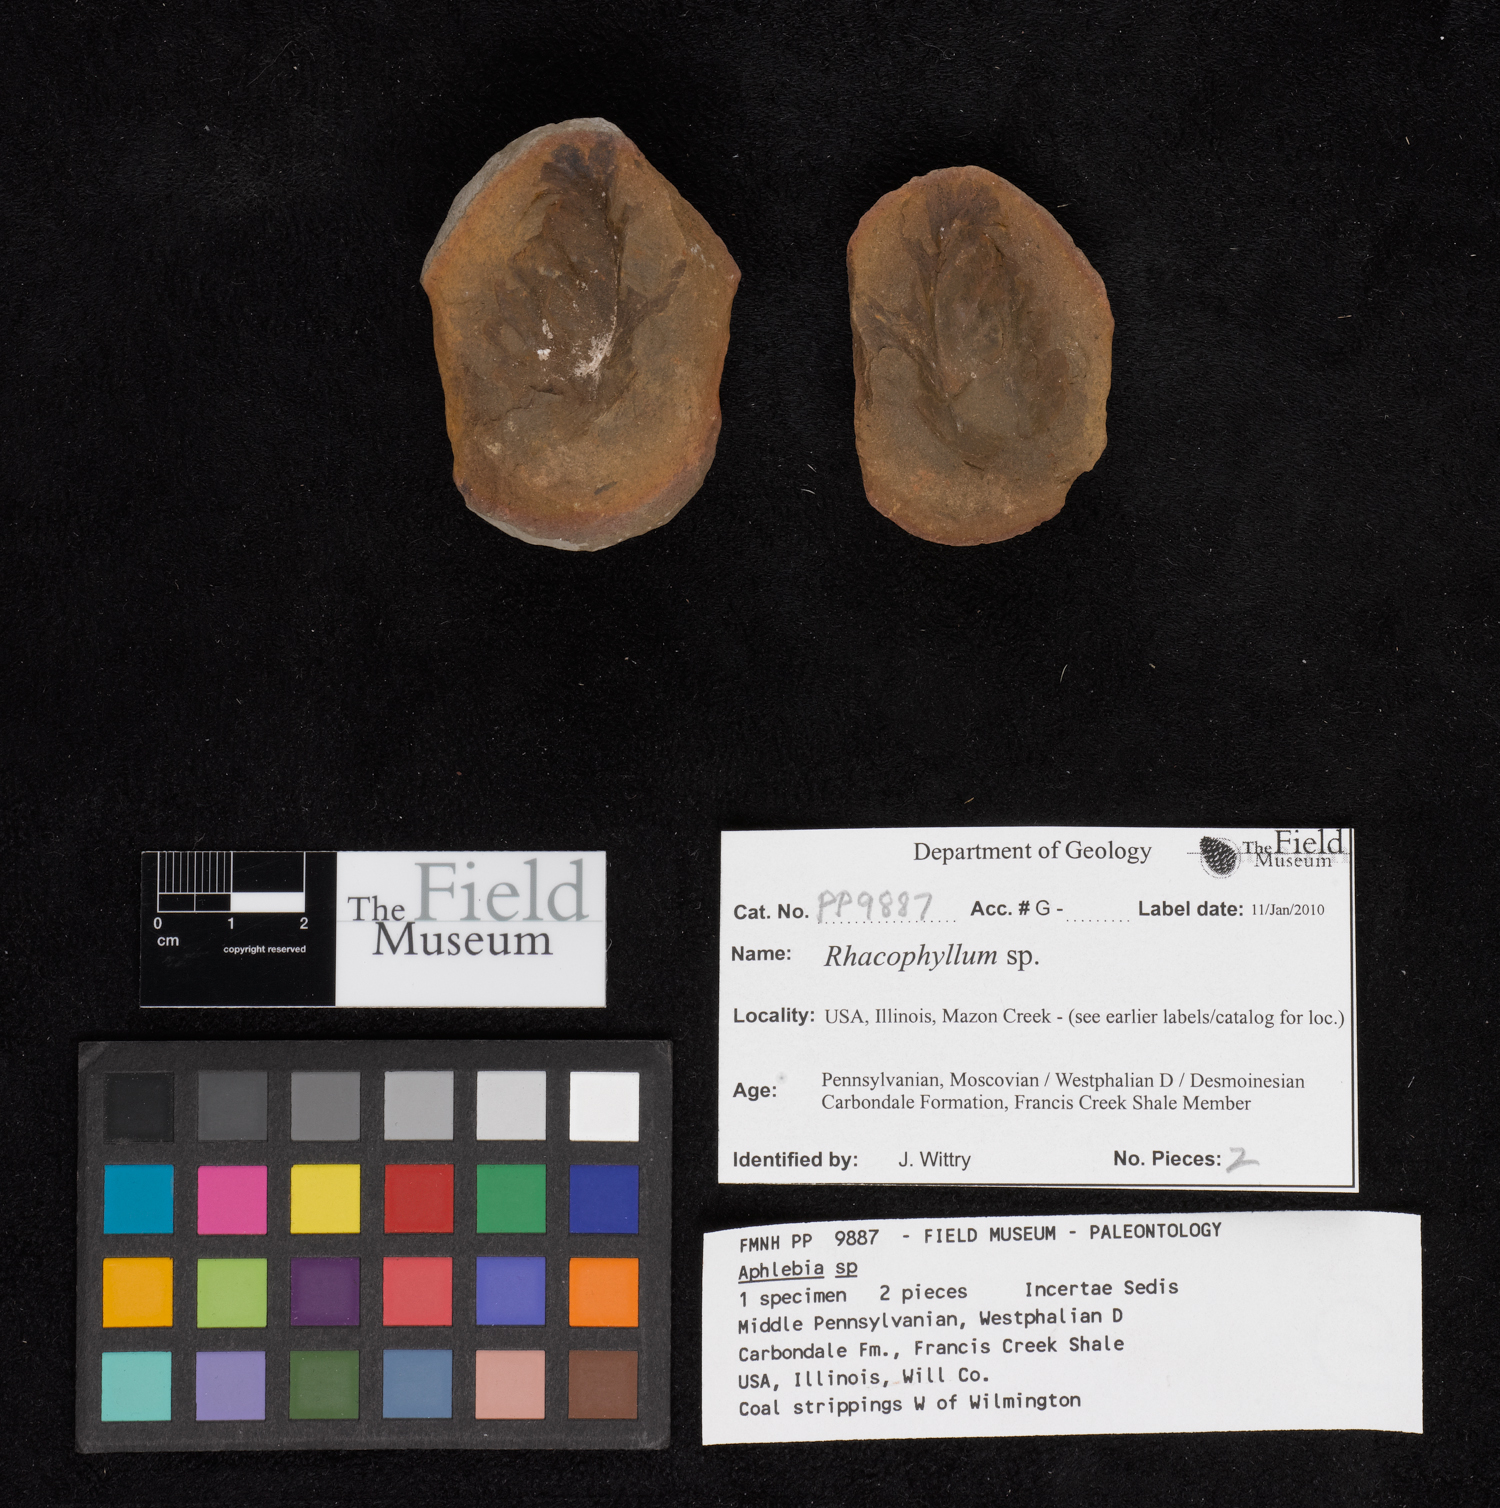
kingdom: Plantae
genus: Rhacophyllum
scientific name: Rhacophyllum
